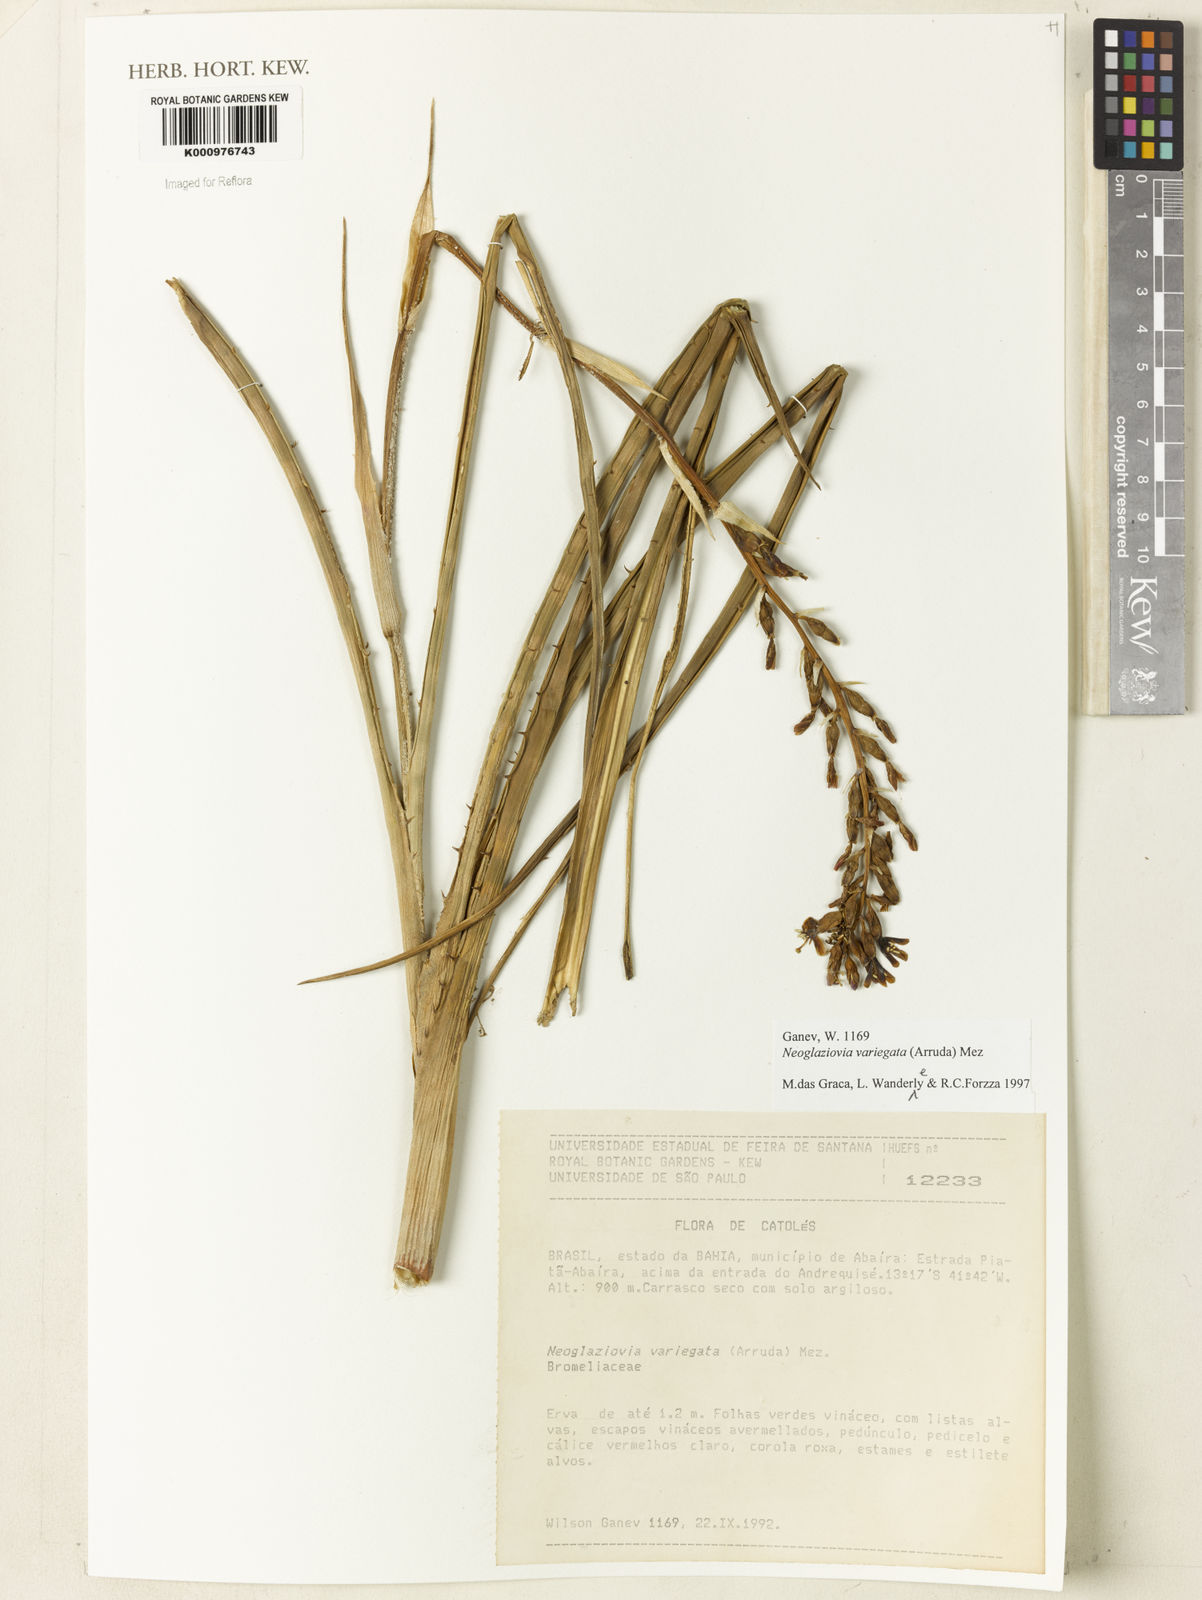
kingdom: Plantae
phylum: Tracheophyta
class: Liliopsida
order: Poales
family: Bromeliaceae
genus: Neoglaziovia
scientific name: Neoglaziovia variegata
